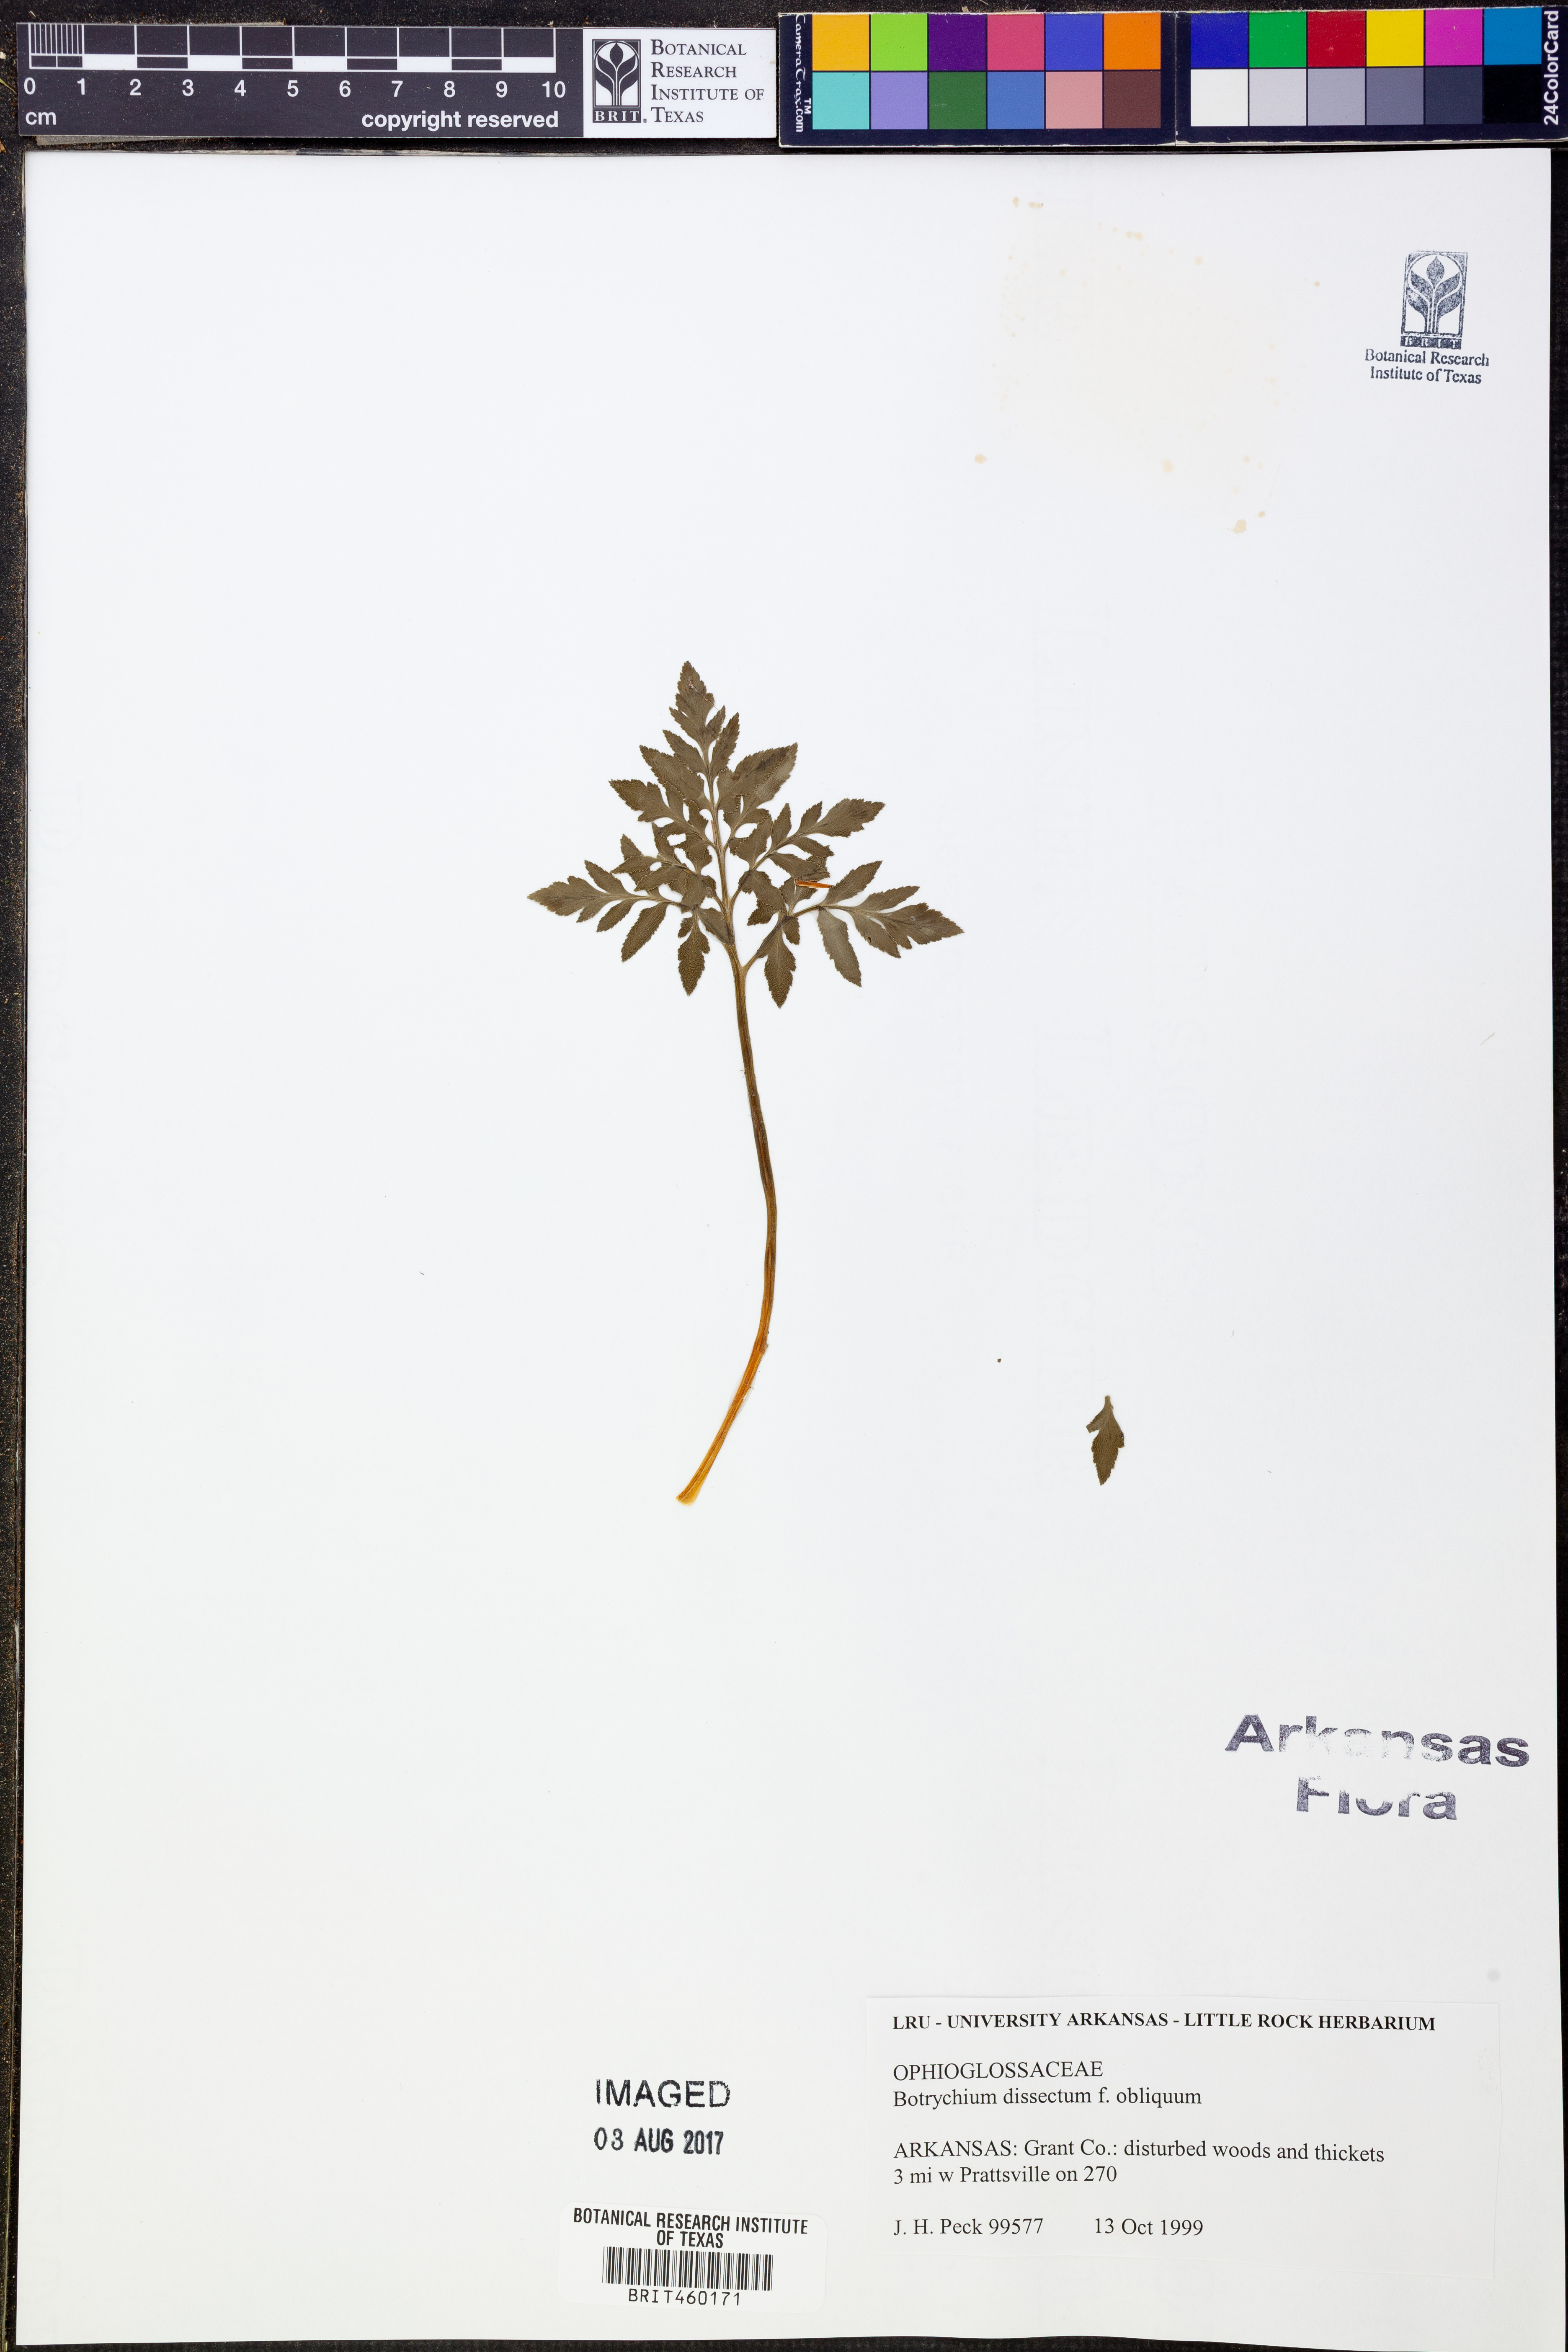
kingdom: Plantae
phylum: Tracheophyta
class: Polypodiopsida
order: Ophioglossales
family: Ophioglossaceae
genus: Sceptridium
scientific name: Sceptridium dissectum
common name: Cut-leaved grapefern
